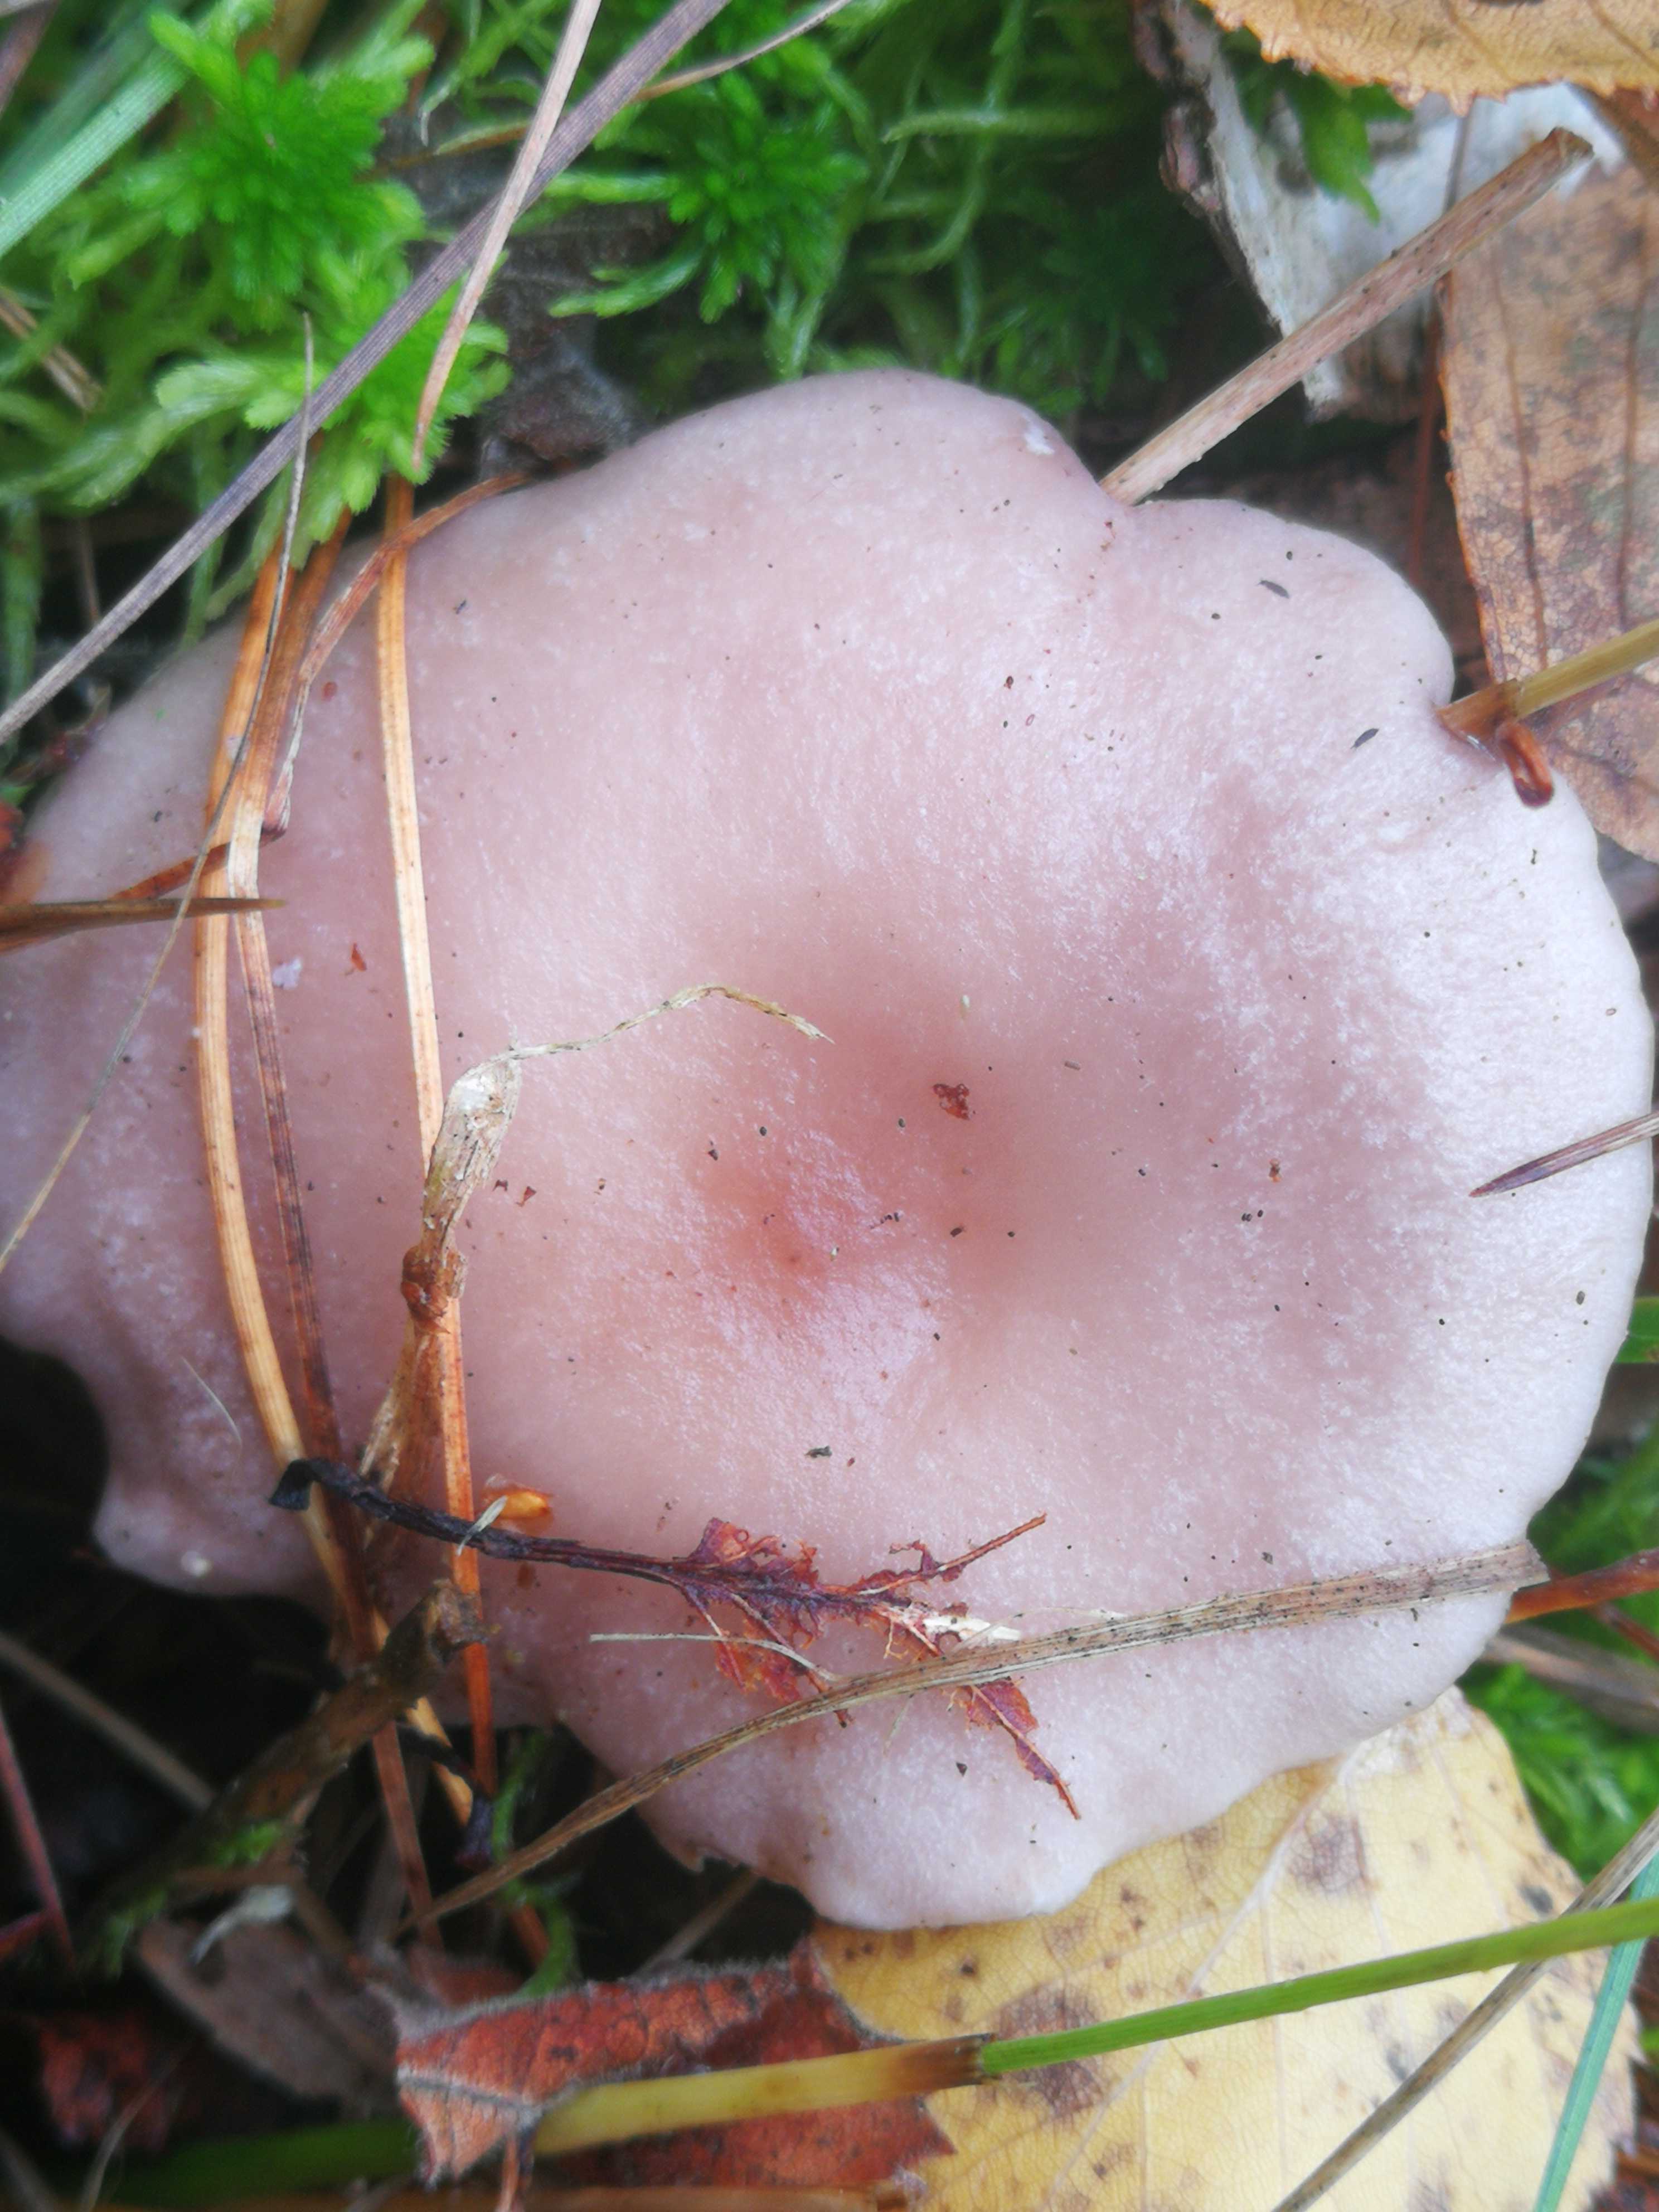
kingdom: Fungi
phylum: Basidiomycota
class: Agaricomycetes
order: Russulales
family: Russulaceae
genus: Lactarius
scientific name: Lactarius vietus
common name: violetgrå mælkehat
